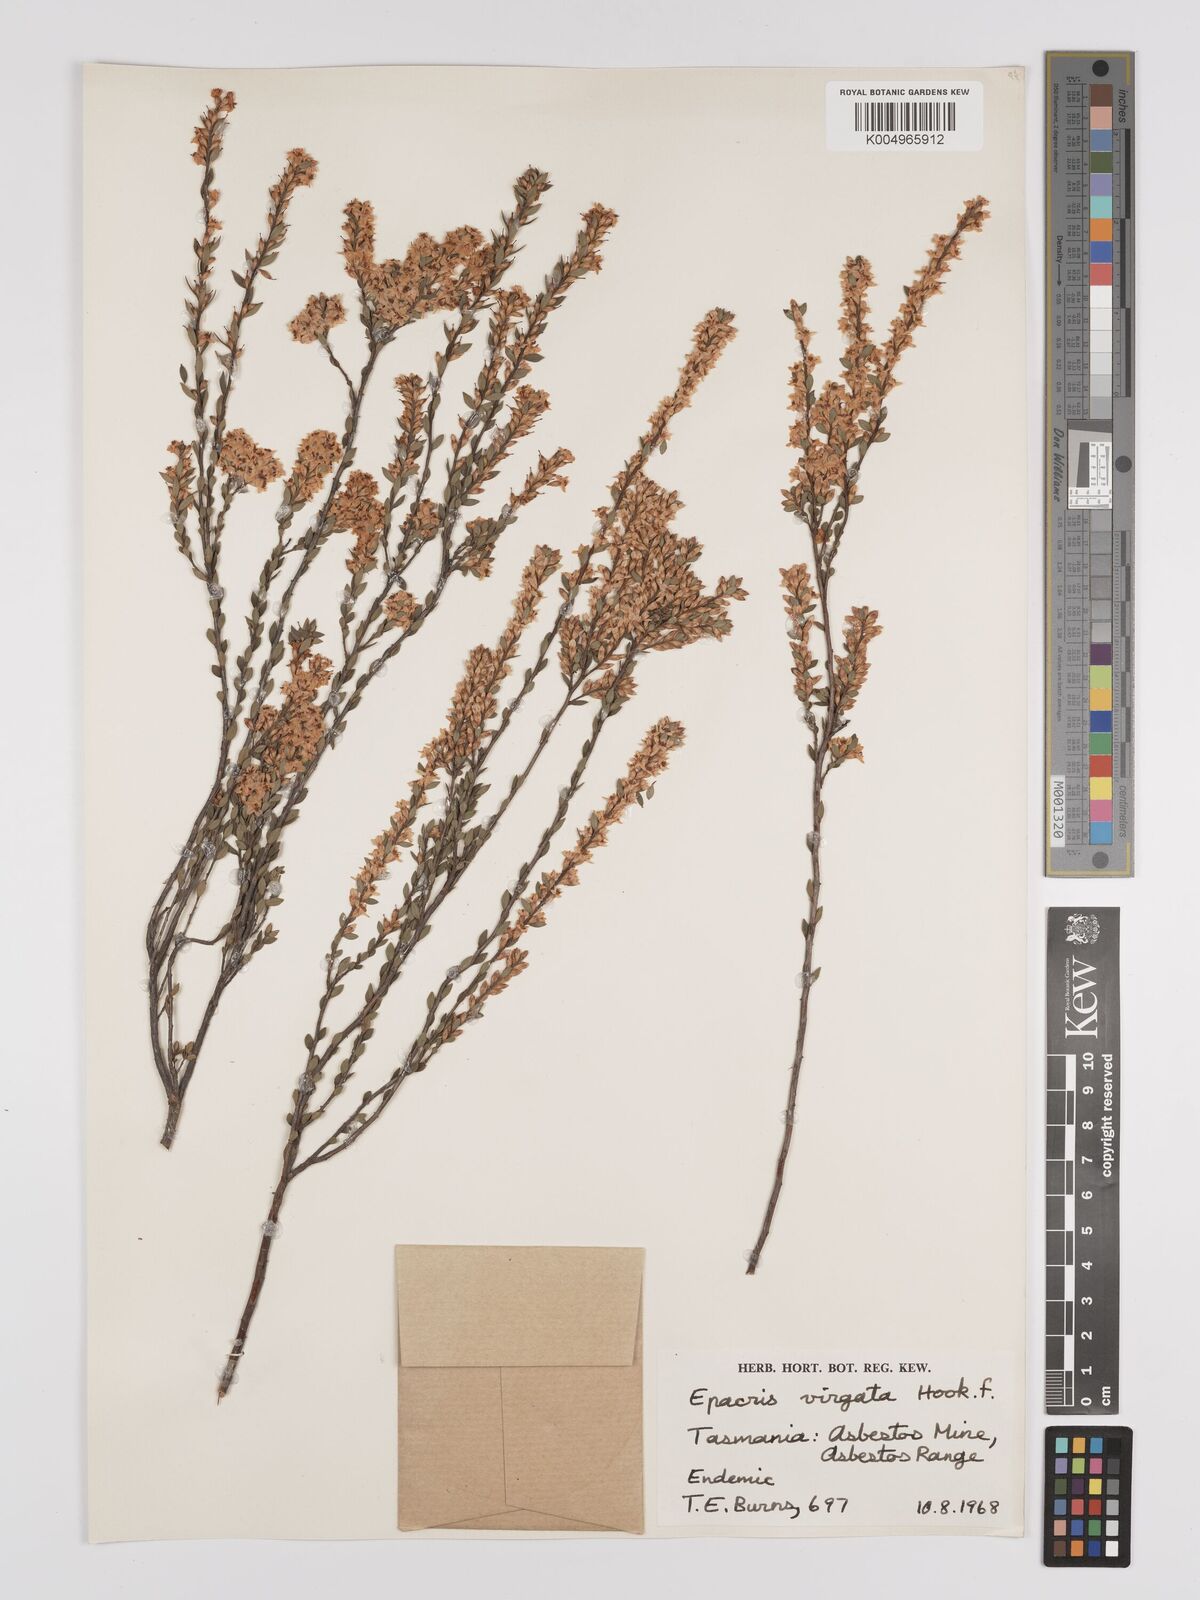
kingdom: Plantae
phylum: Tracheophyta
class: Magnoliopsida
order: Ericales
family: Ericaceae
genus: Epacris
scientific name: Epacris virgata
